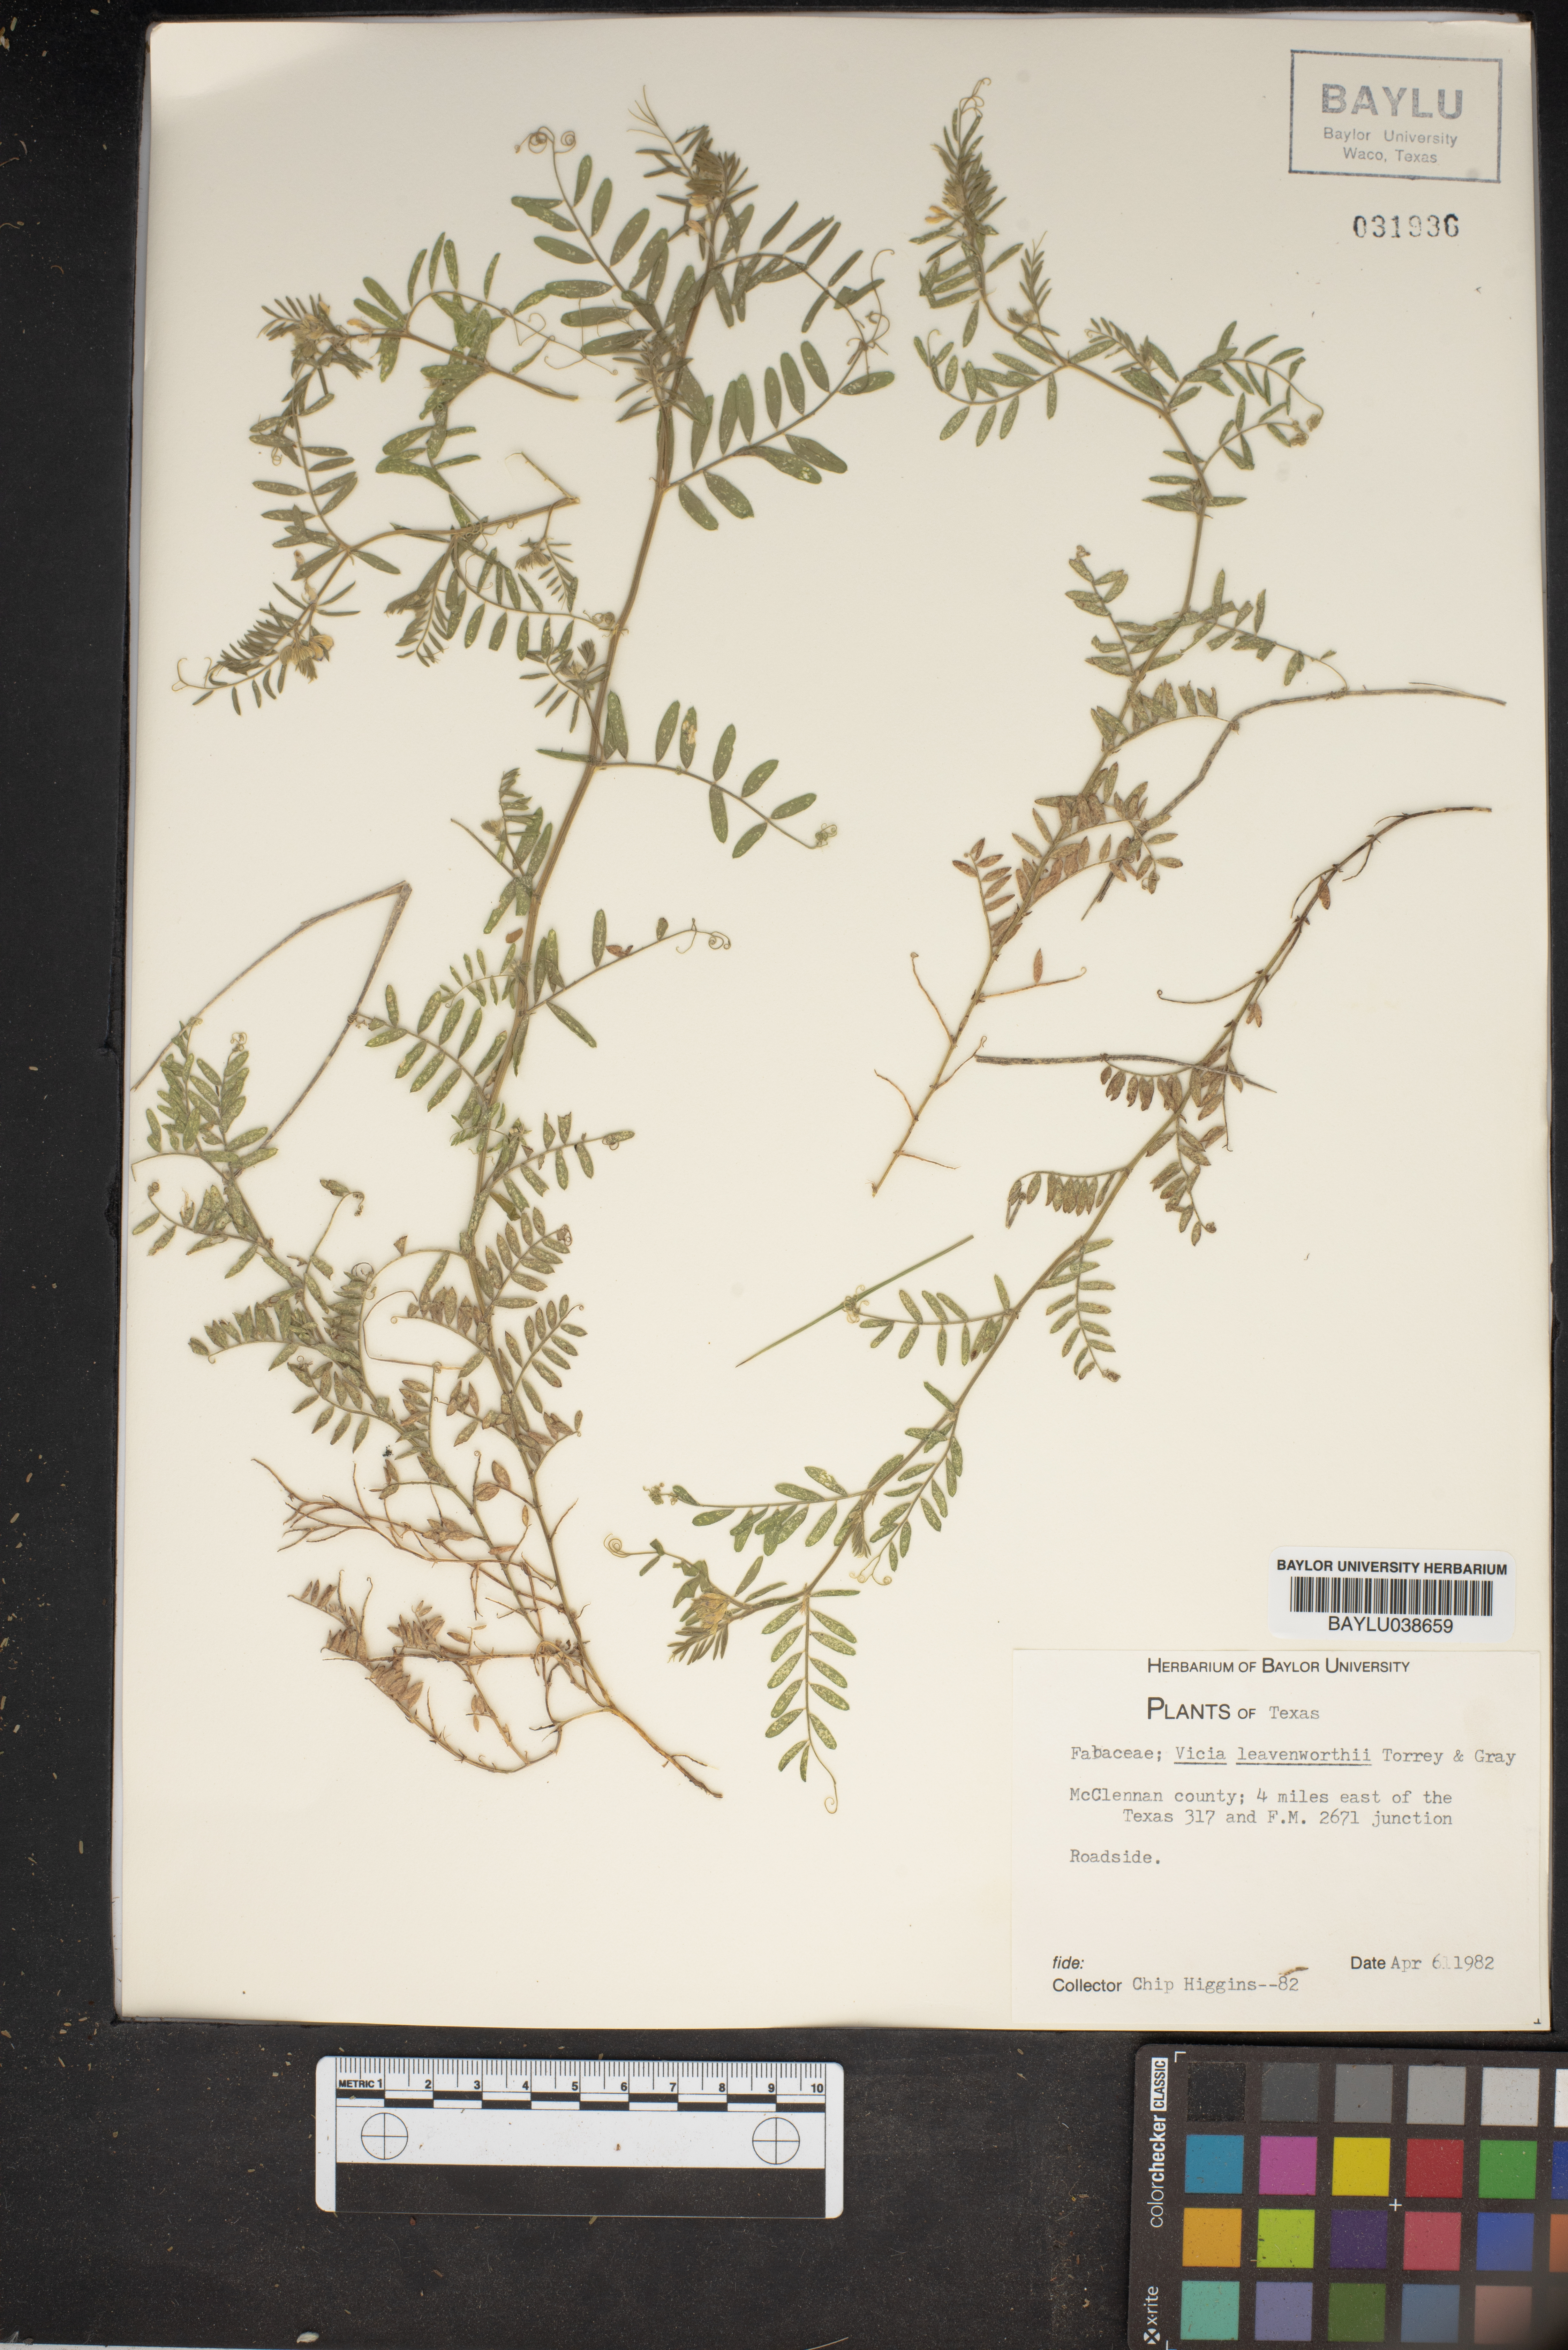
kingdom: Plantae
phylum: Tracheophyta
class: Magnoliopsida
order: Fabales
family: Fabaceae
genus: Vicia
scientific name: Vicia ludoviciana
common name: Louisiana vetch
